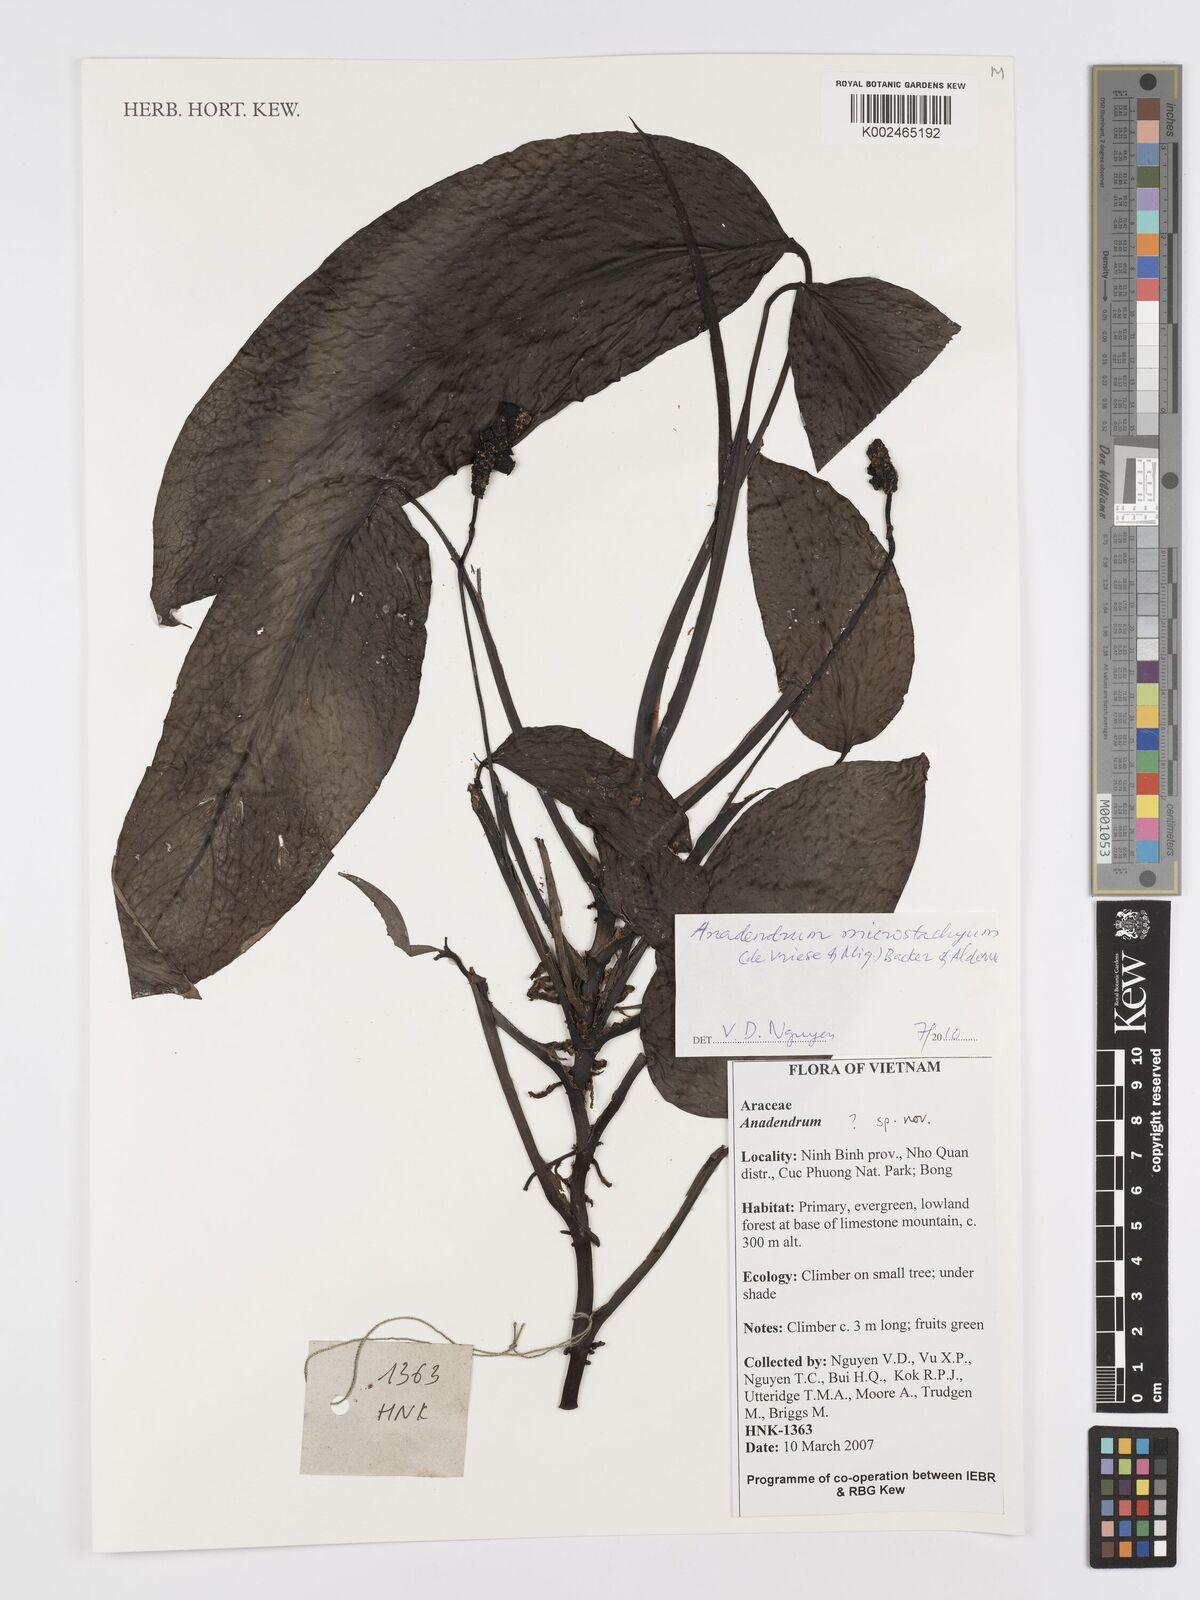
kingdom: Plantae
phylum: Tracheophyta
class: Liliopsida
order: Alismatales
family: Araceae
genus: Anadendrum
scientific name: Anadendrum
